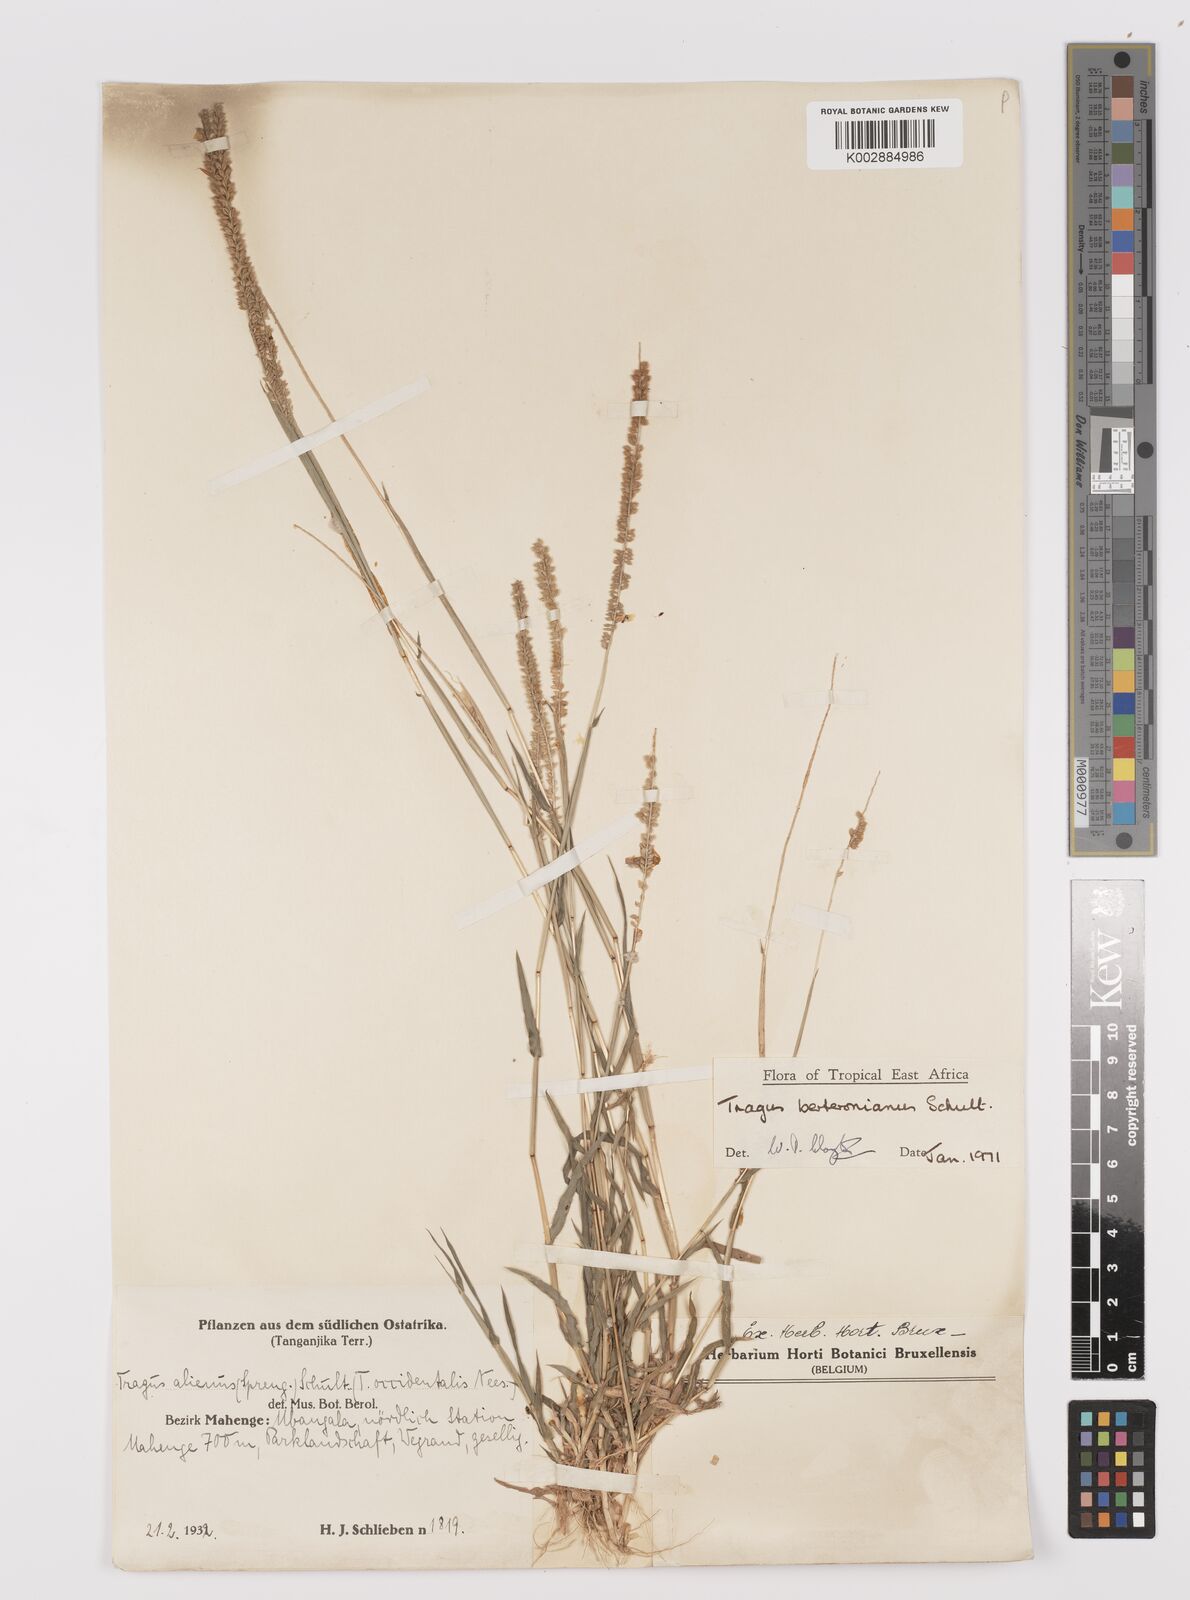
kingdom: Plantae
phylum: Tracheophyta
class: Liliopsida
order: Poales
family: Poaceae
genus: Tragus
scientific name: Tragus berteronianus
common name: African bur-grass
